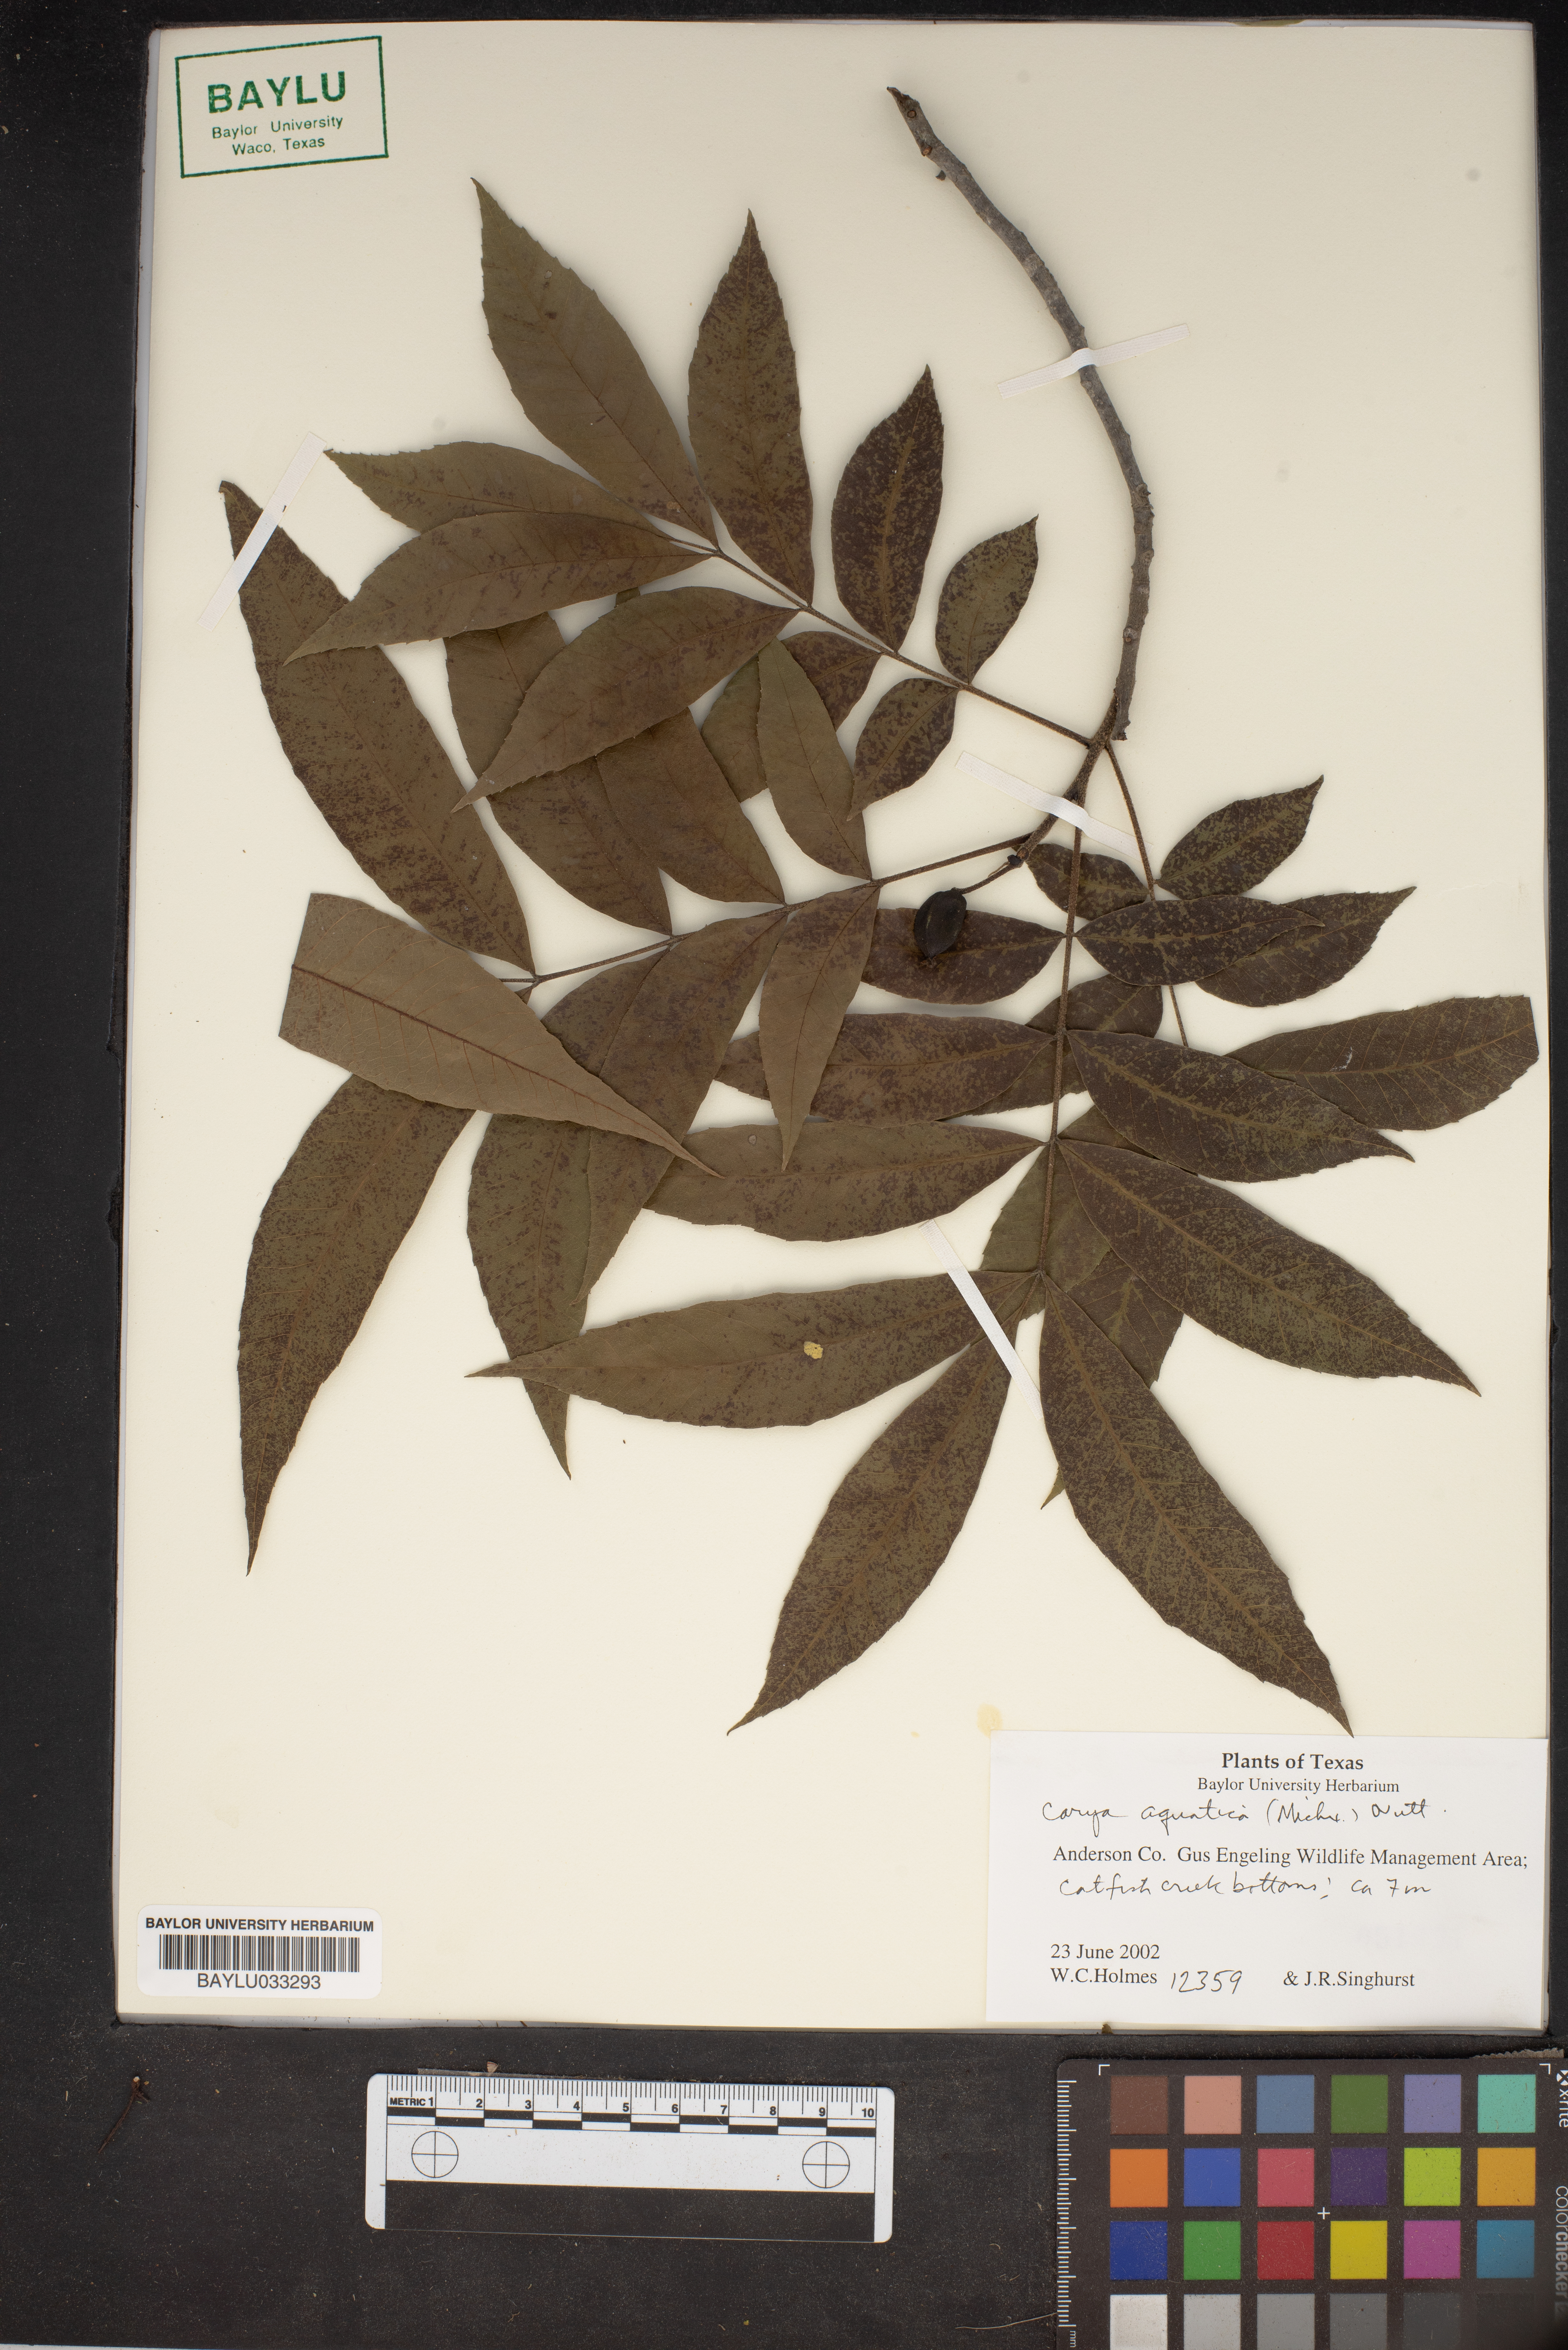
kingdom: Plantae
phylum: Tracheophyta
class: Magnoliopsida
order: Fagales
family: Juglandaceae
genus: Carya
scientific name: Carya aquatica
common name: Water hickory
